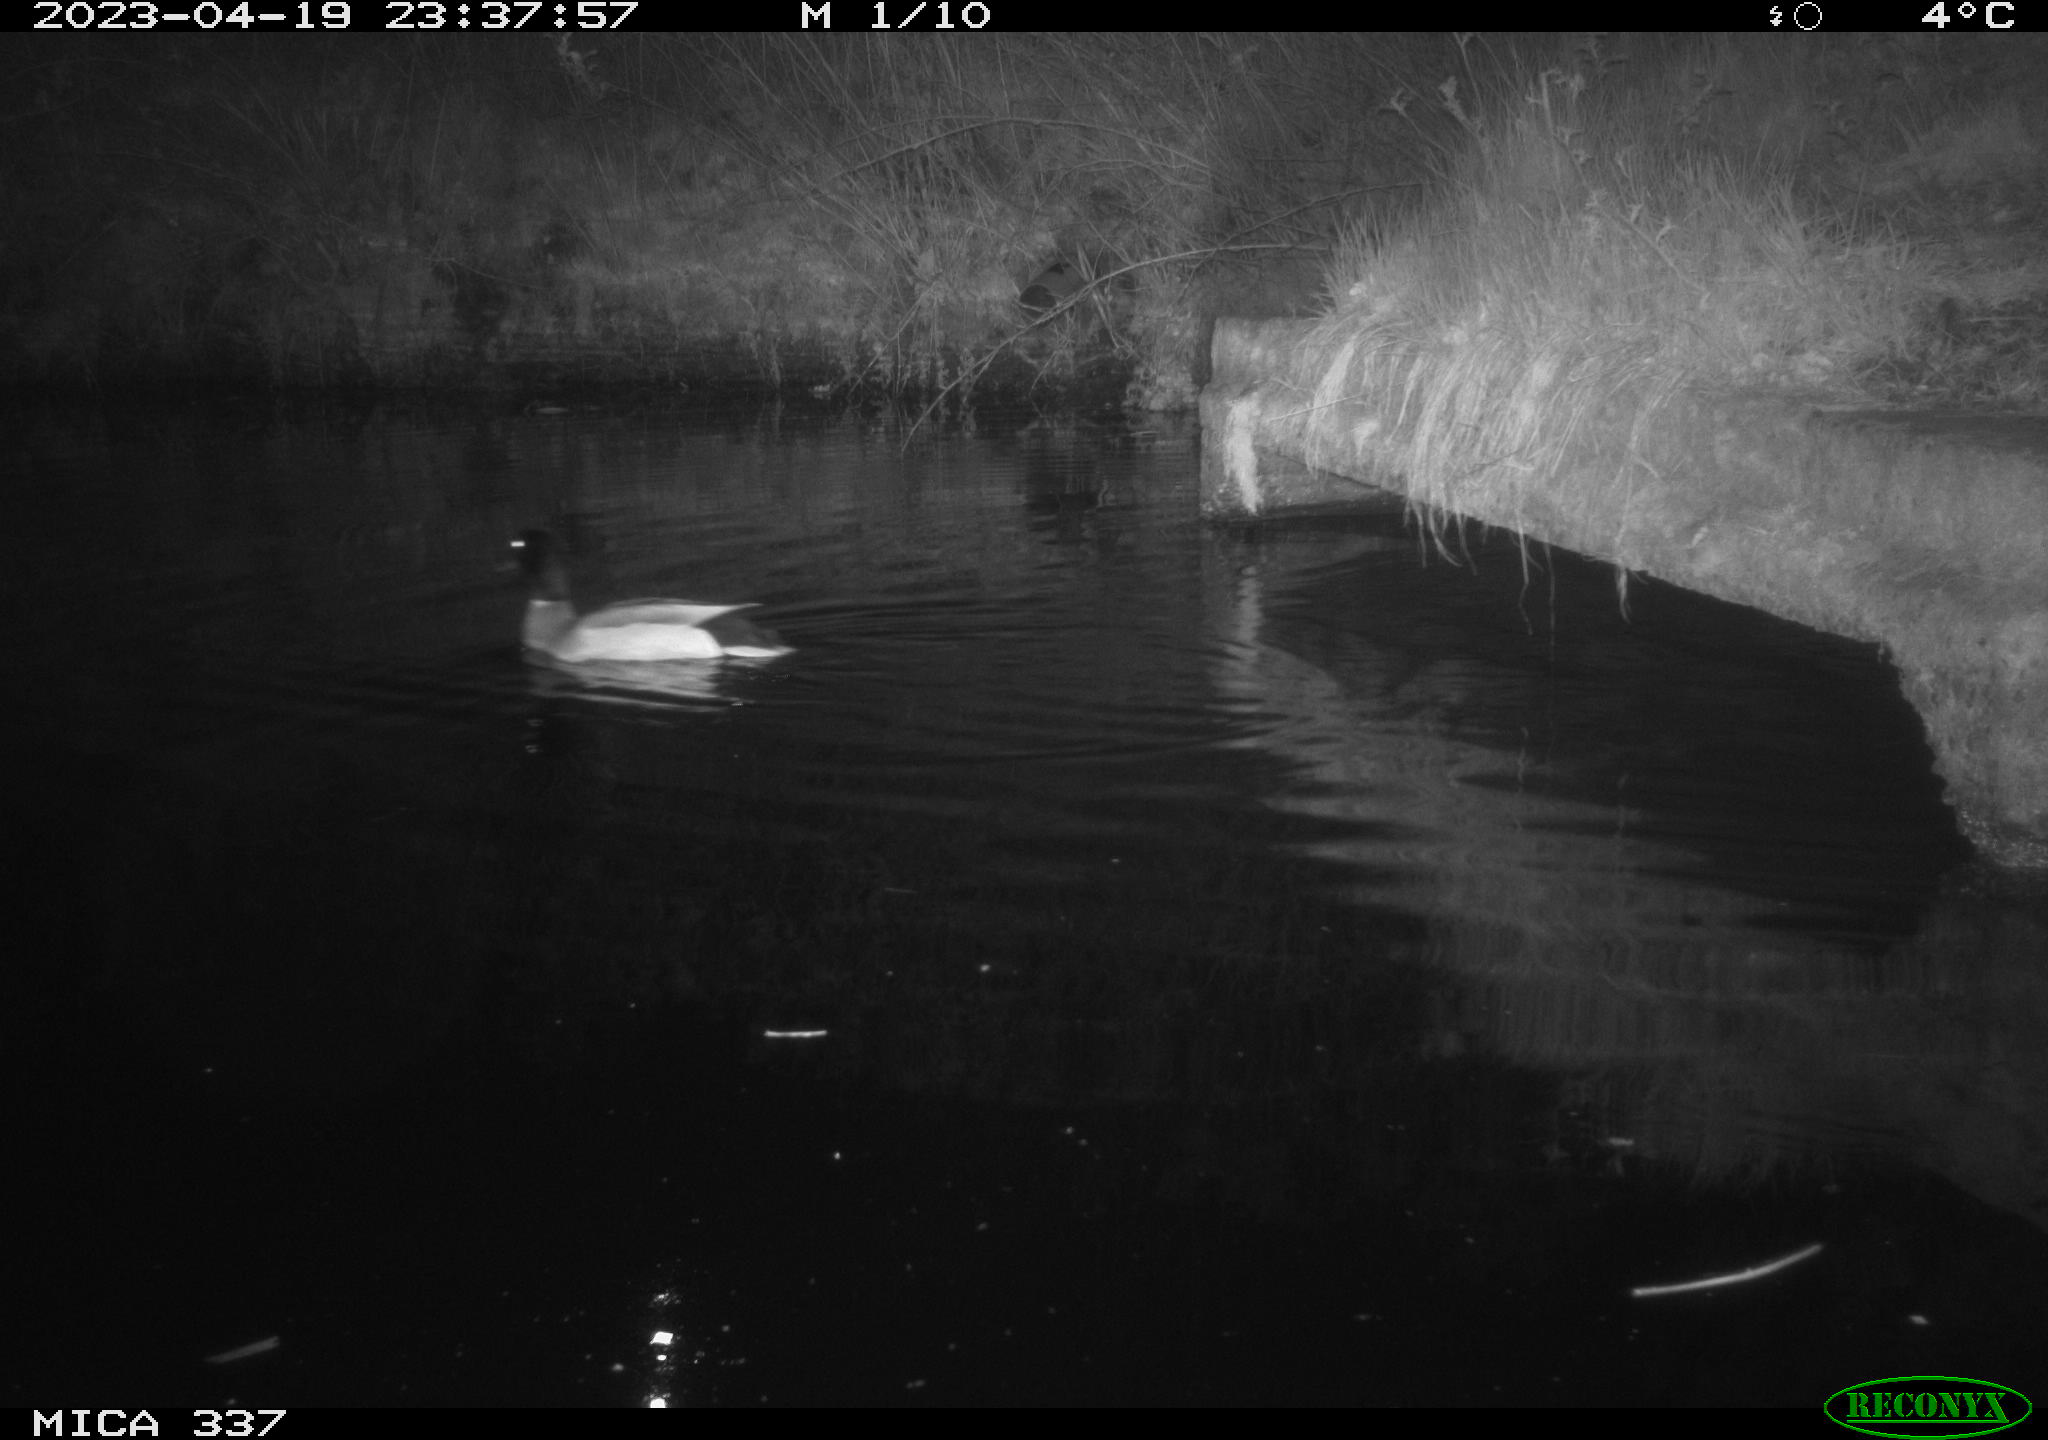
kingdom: Animalia
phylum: Chordata
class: Aves
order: Anseriformes
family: Anatidae
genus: Anas
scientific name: Anas platyrhynchos
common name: Mallard
